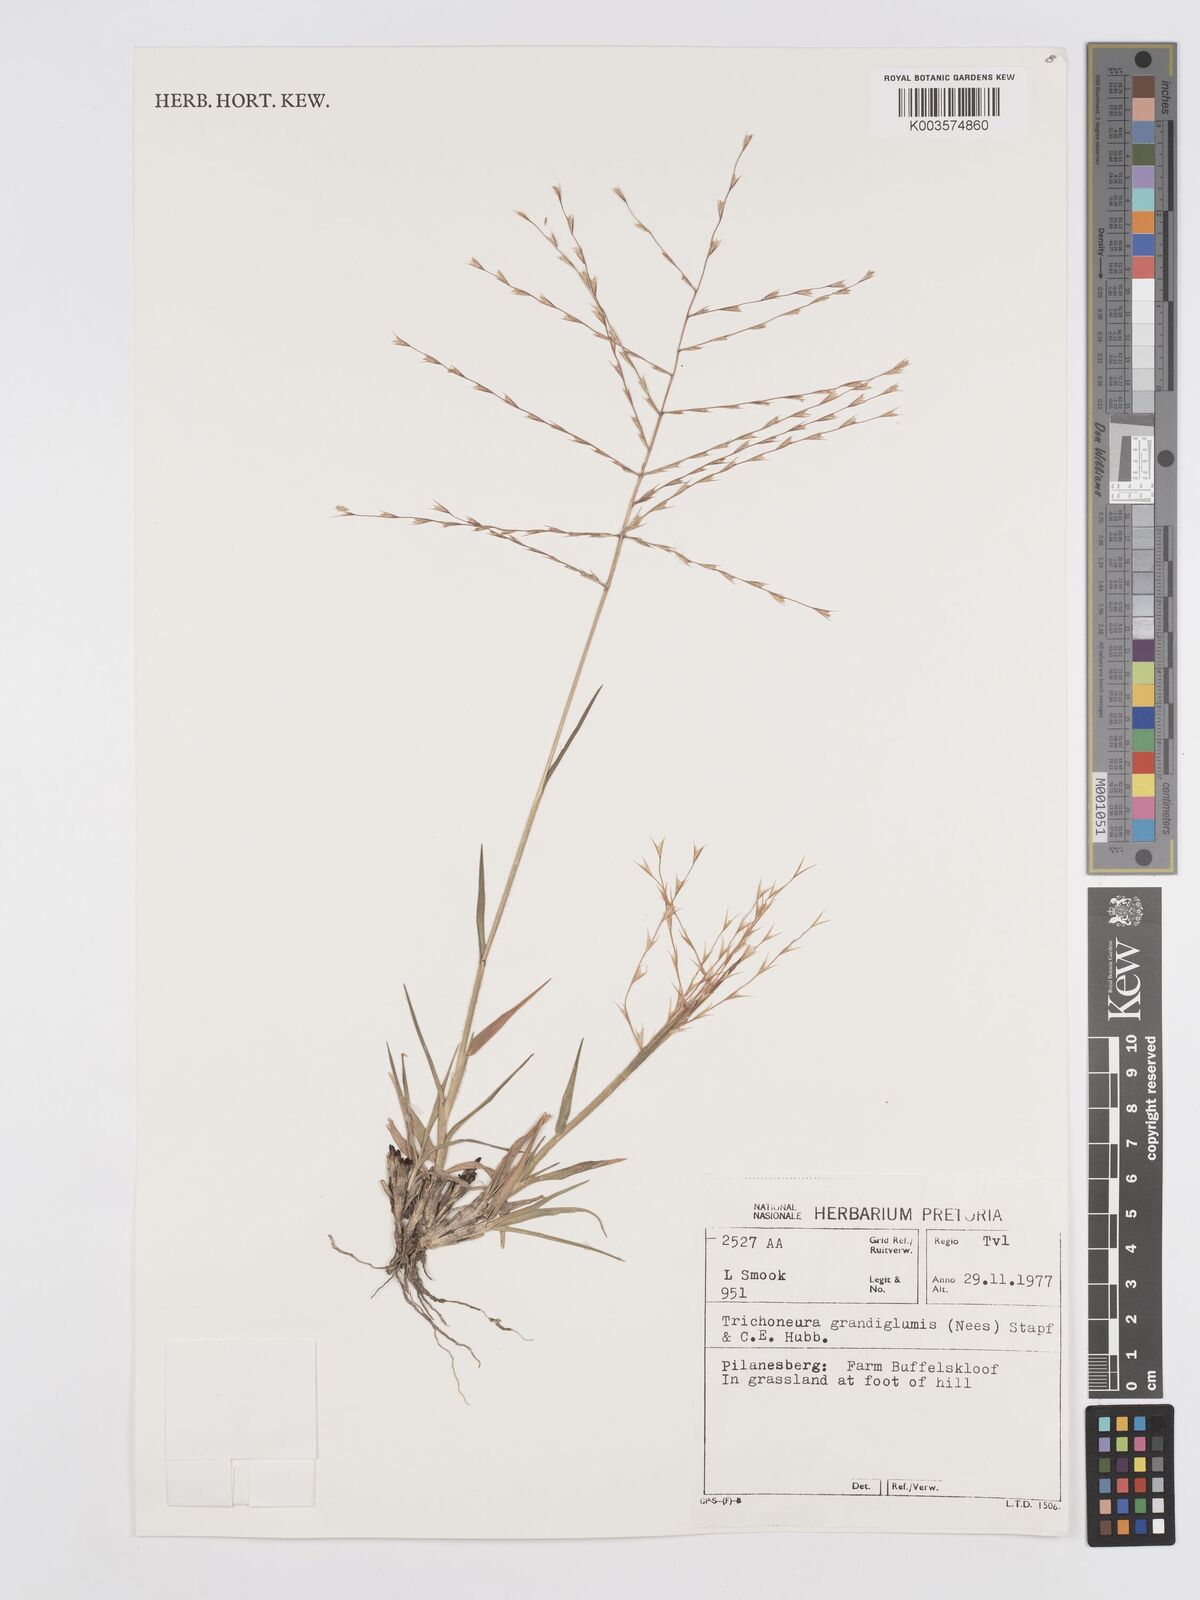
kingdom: Plantae
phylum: Tracheophyta
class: Liliopsida
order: Poales
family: Poaceae
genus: Trichoneura
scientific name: Trichoneura grandiglumis
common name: Rolling grass
